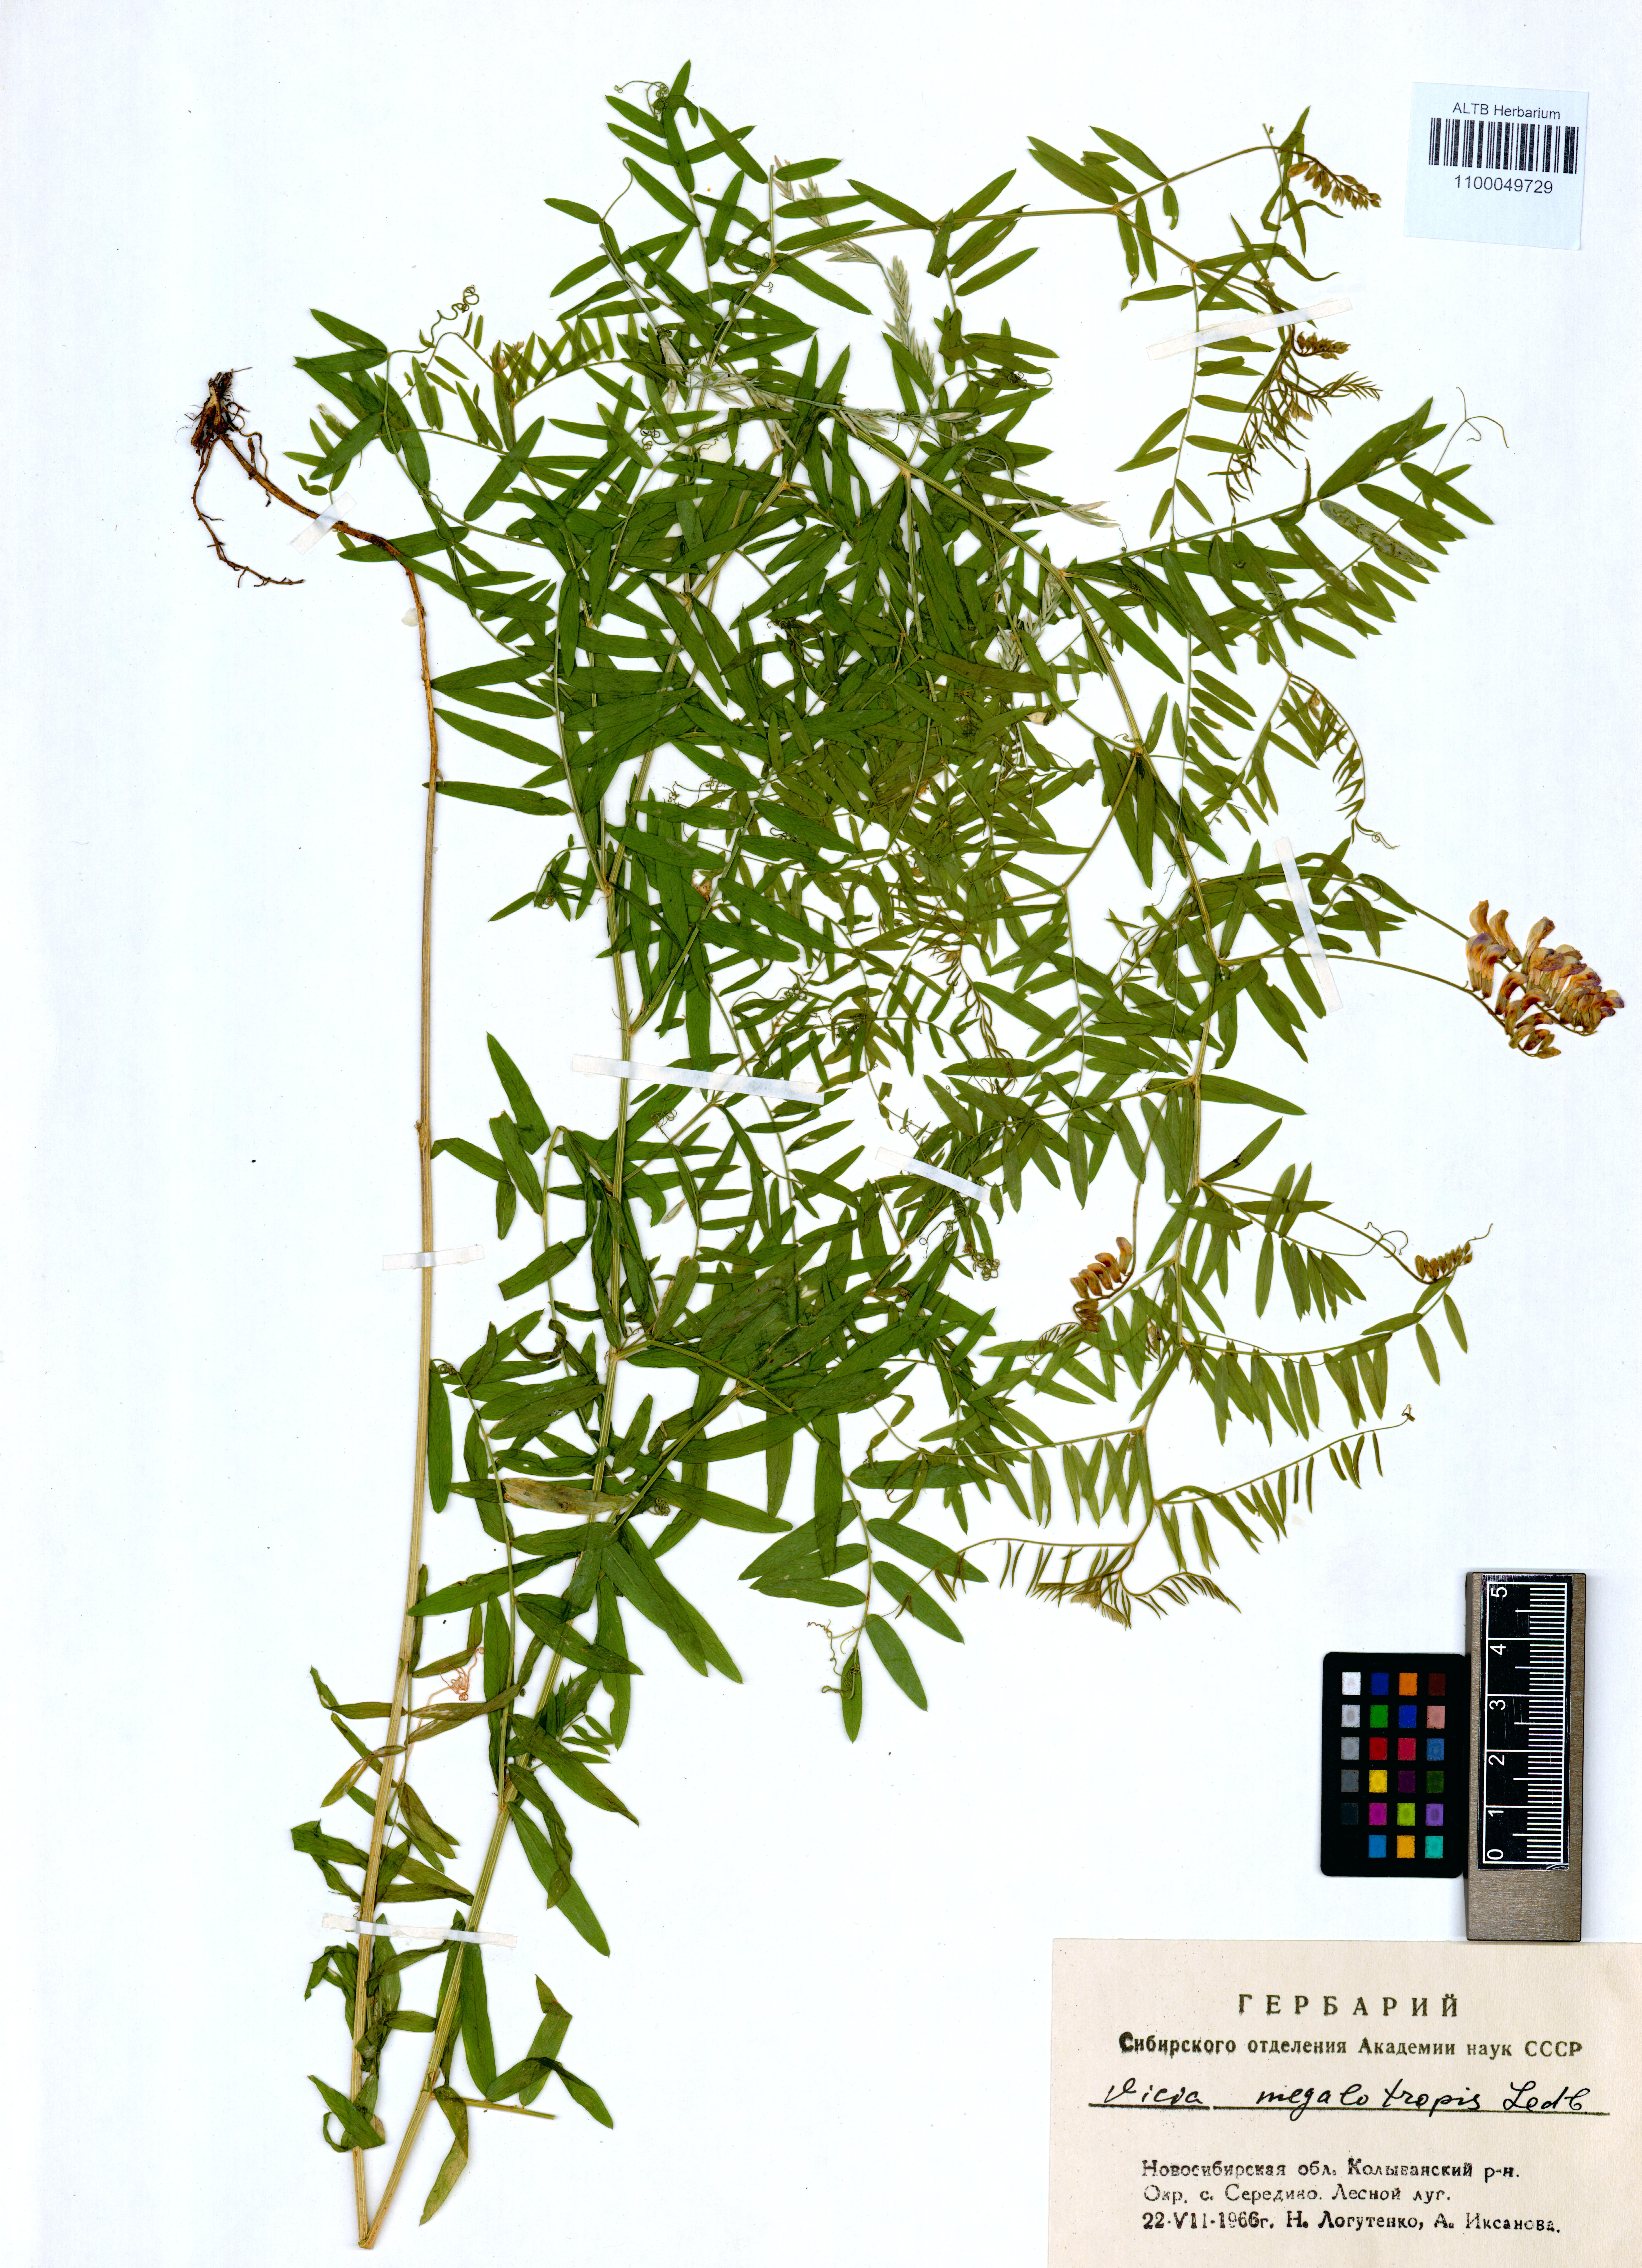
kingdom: Plantae
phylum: Tracheophyta
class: Magnoliopsida
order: Fabales
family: Fabaceae
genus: Vicia
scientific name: Vicia megalotropis
